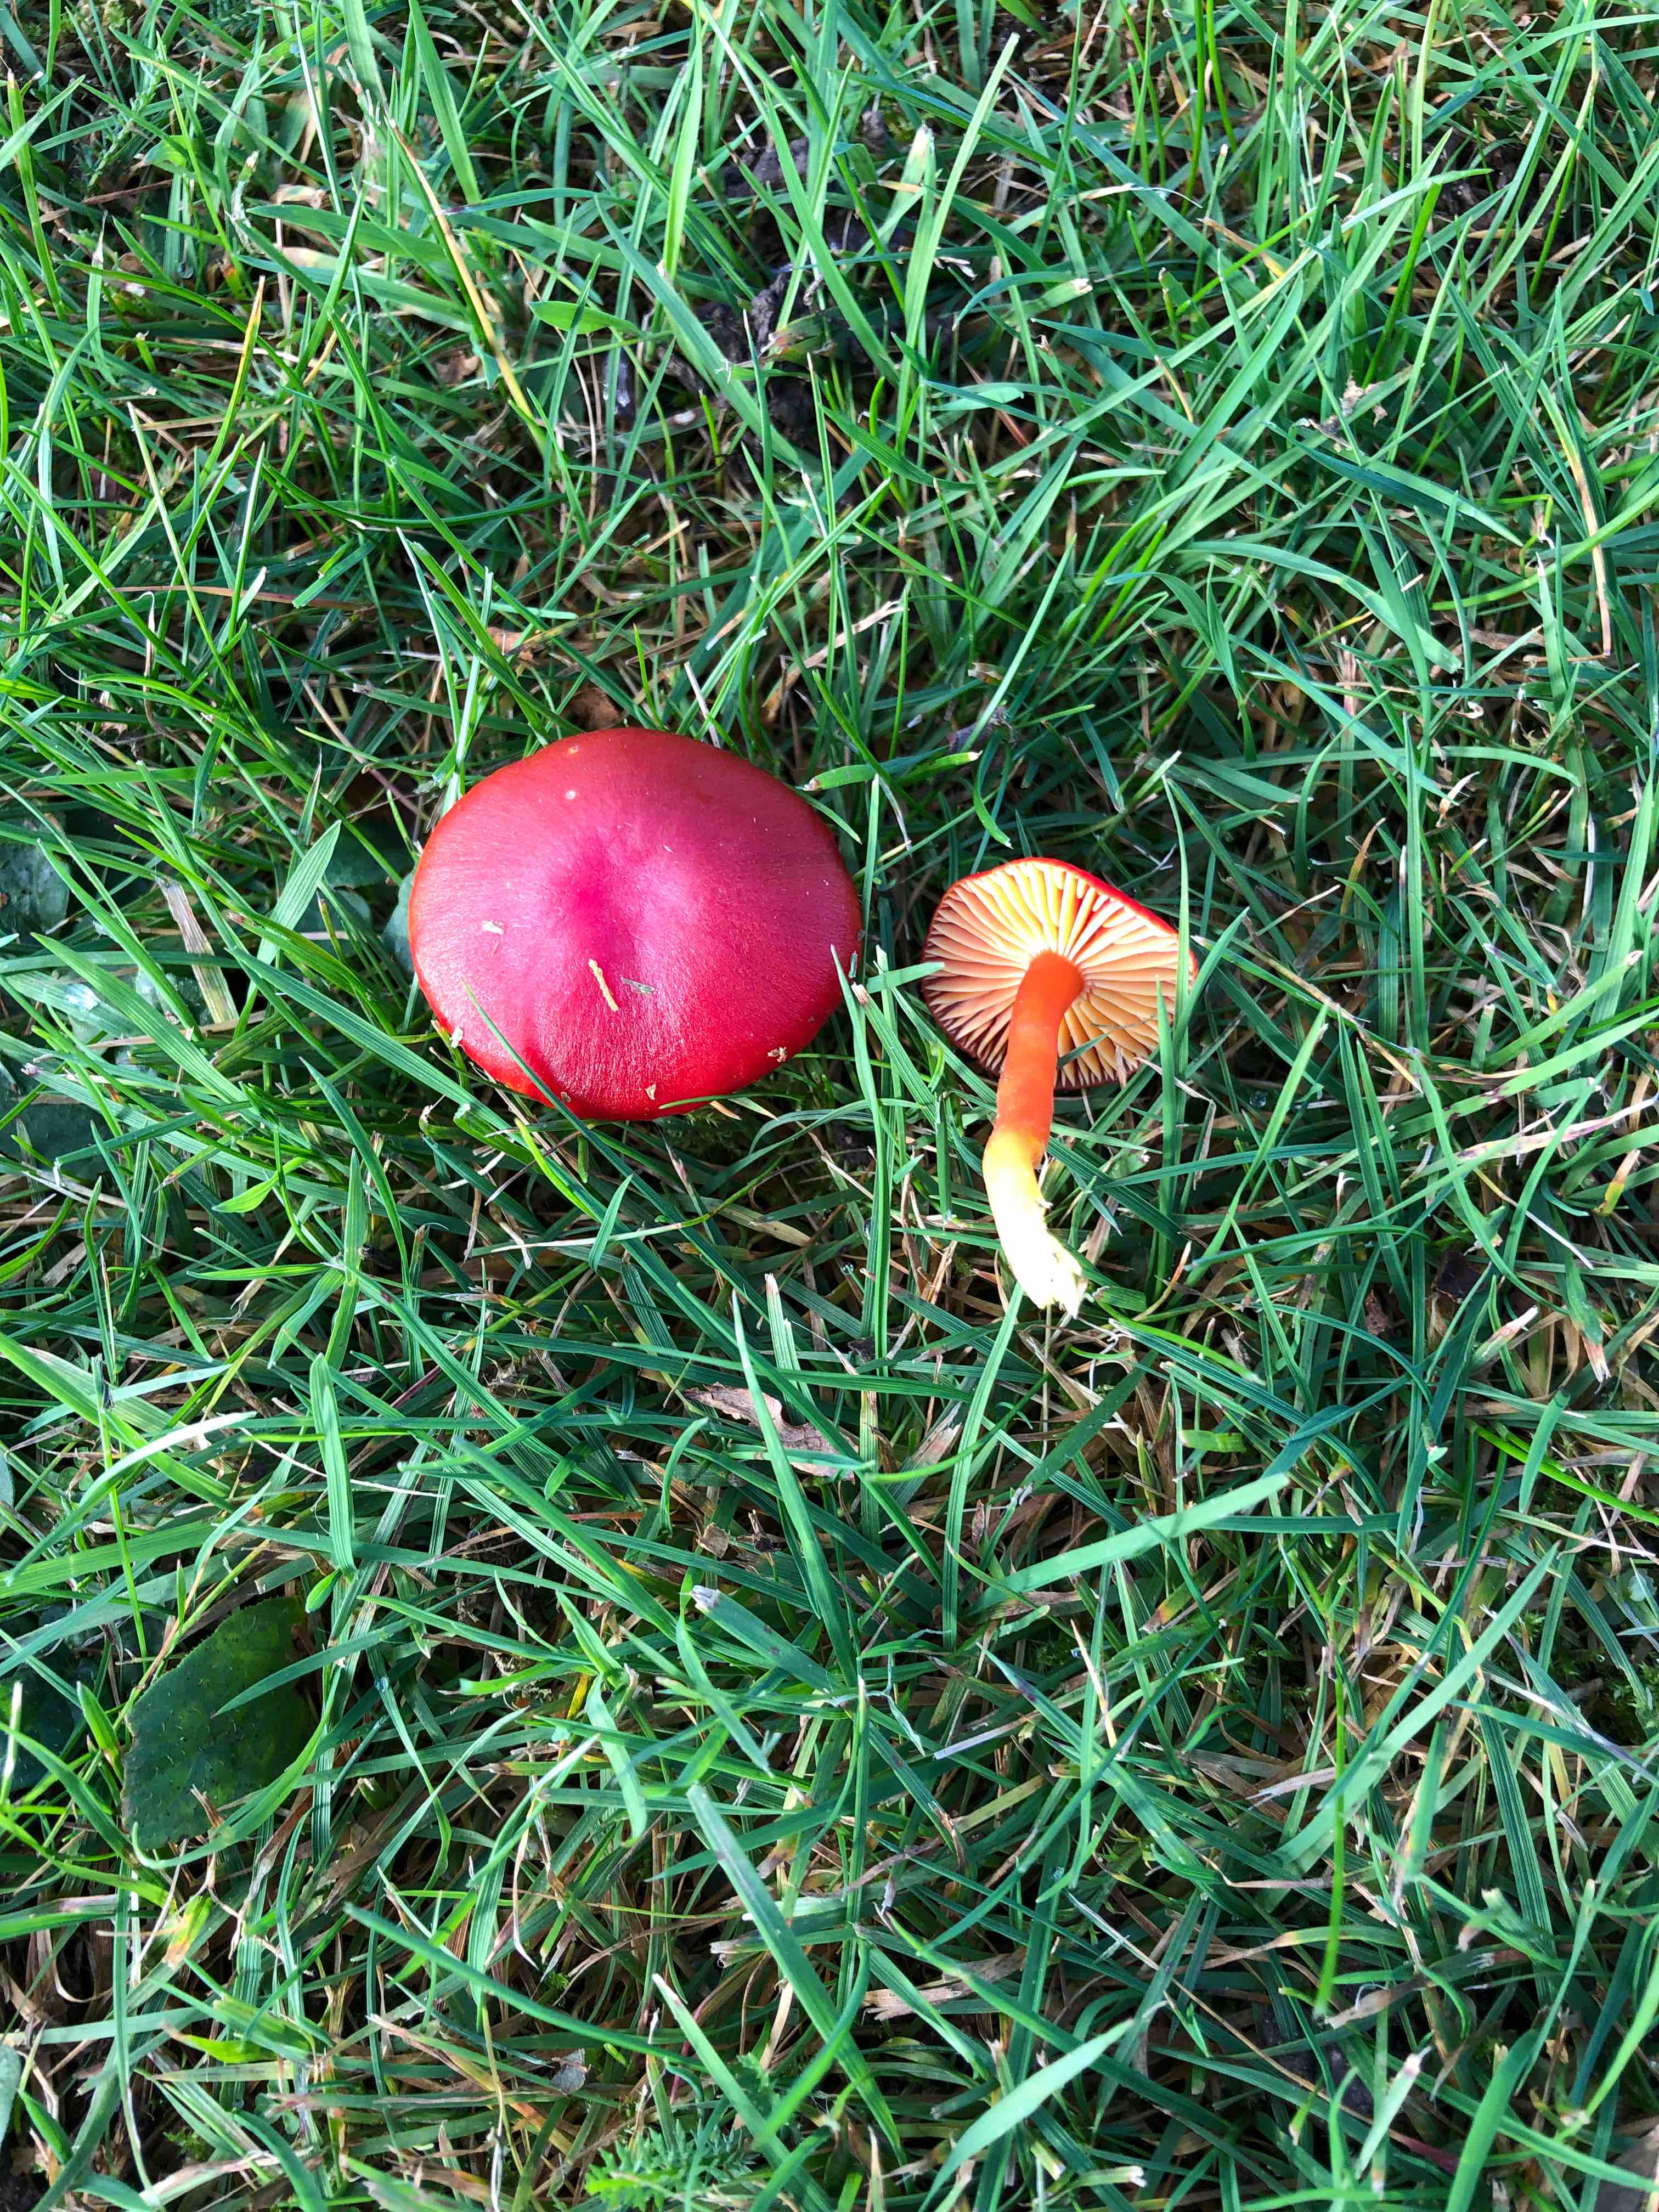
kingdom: Fungi
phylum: Basidiomycota
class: Agaricomycetes
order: Agaricales
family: Hygrophoraceae
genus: Hygrocybe
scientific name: Hygrocybe coccinea
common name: cinnober-vokshat
